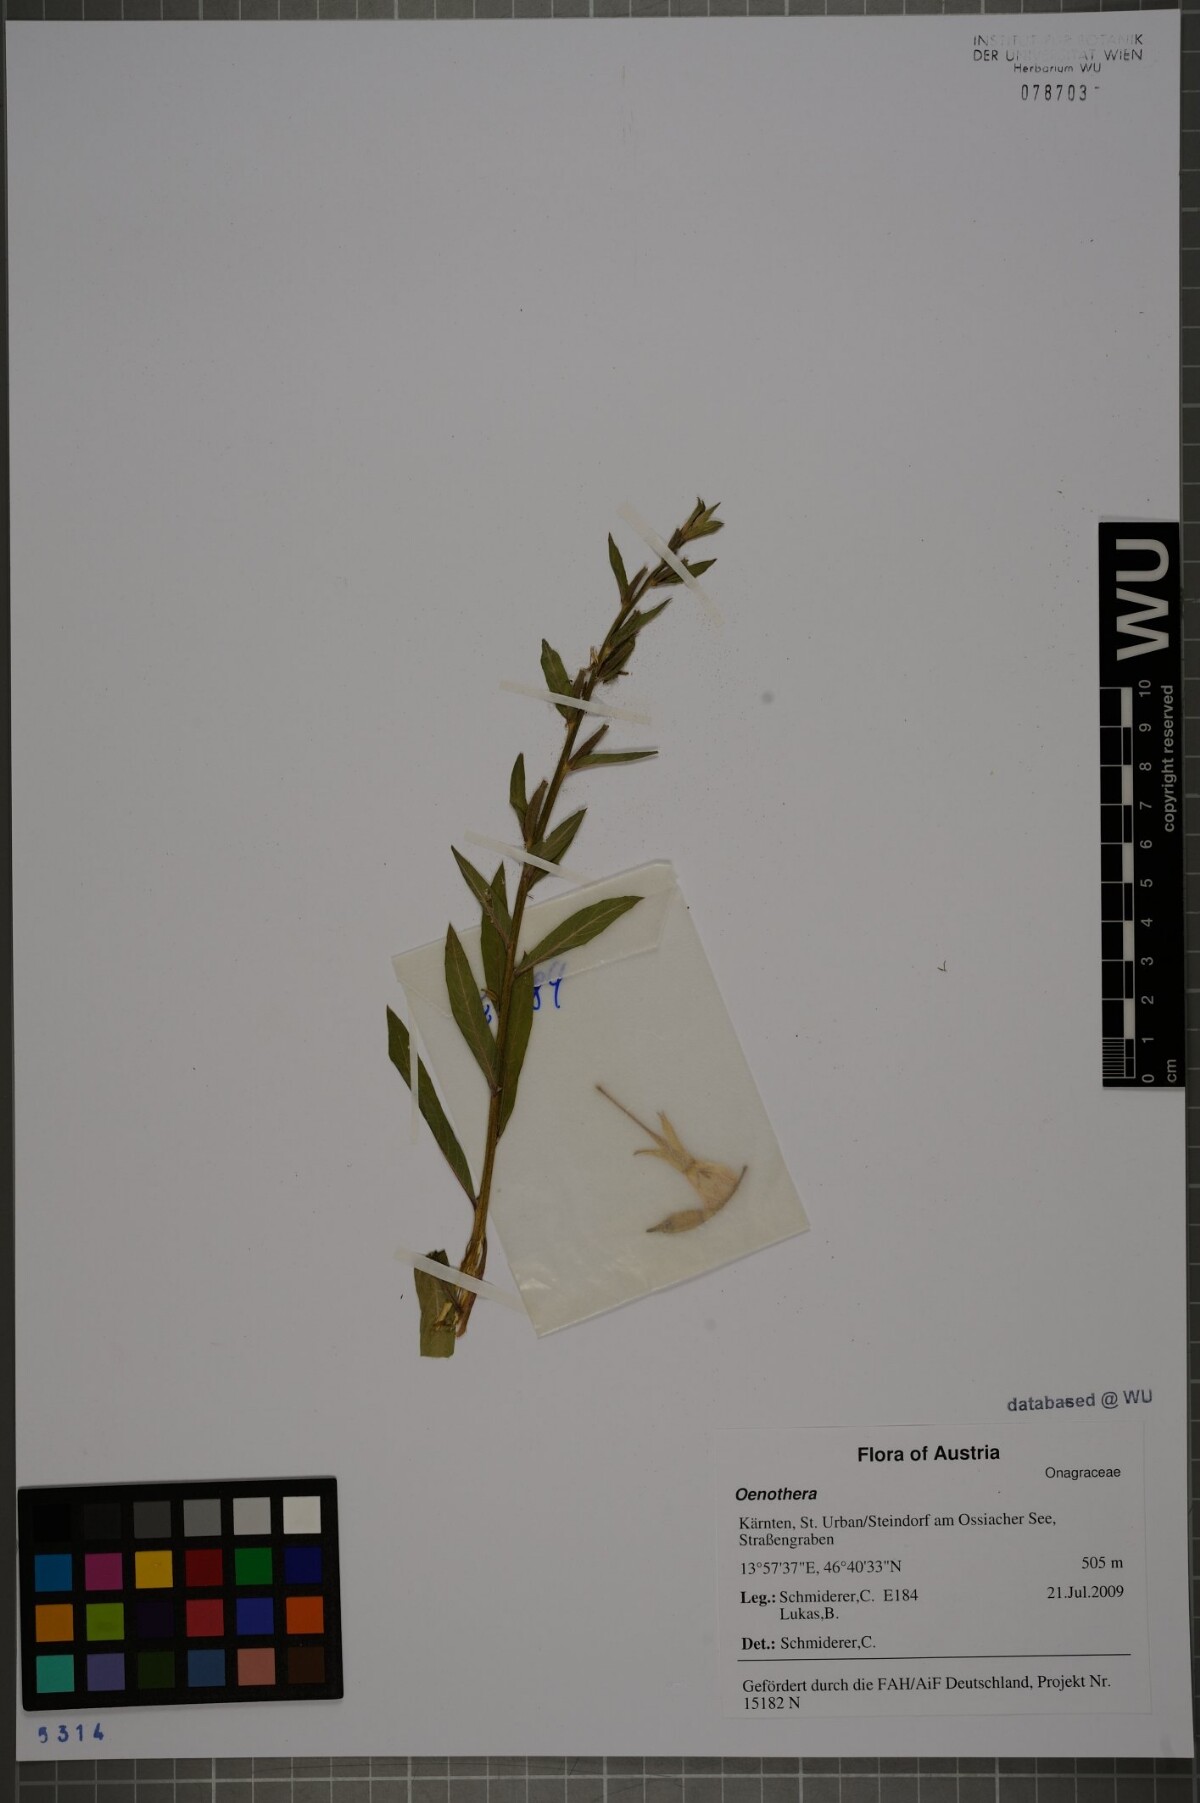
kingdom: Plantae
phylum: Tracheophyta
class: Magnoliopsida
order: Myrtales
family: Onagraceae
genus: Oenothera
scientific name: Oenothera
